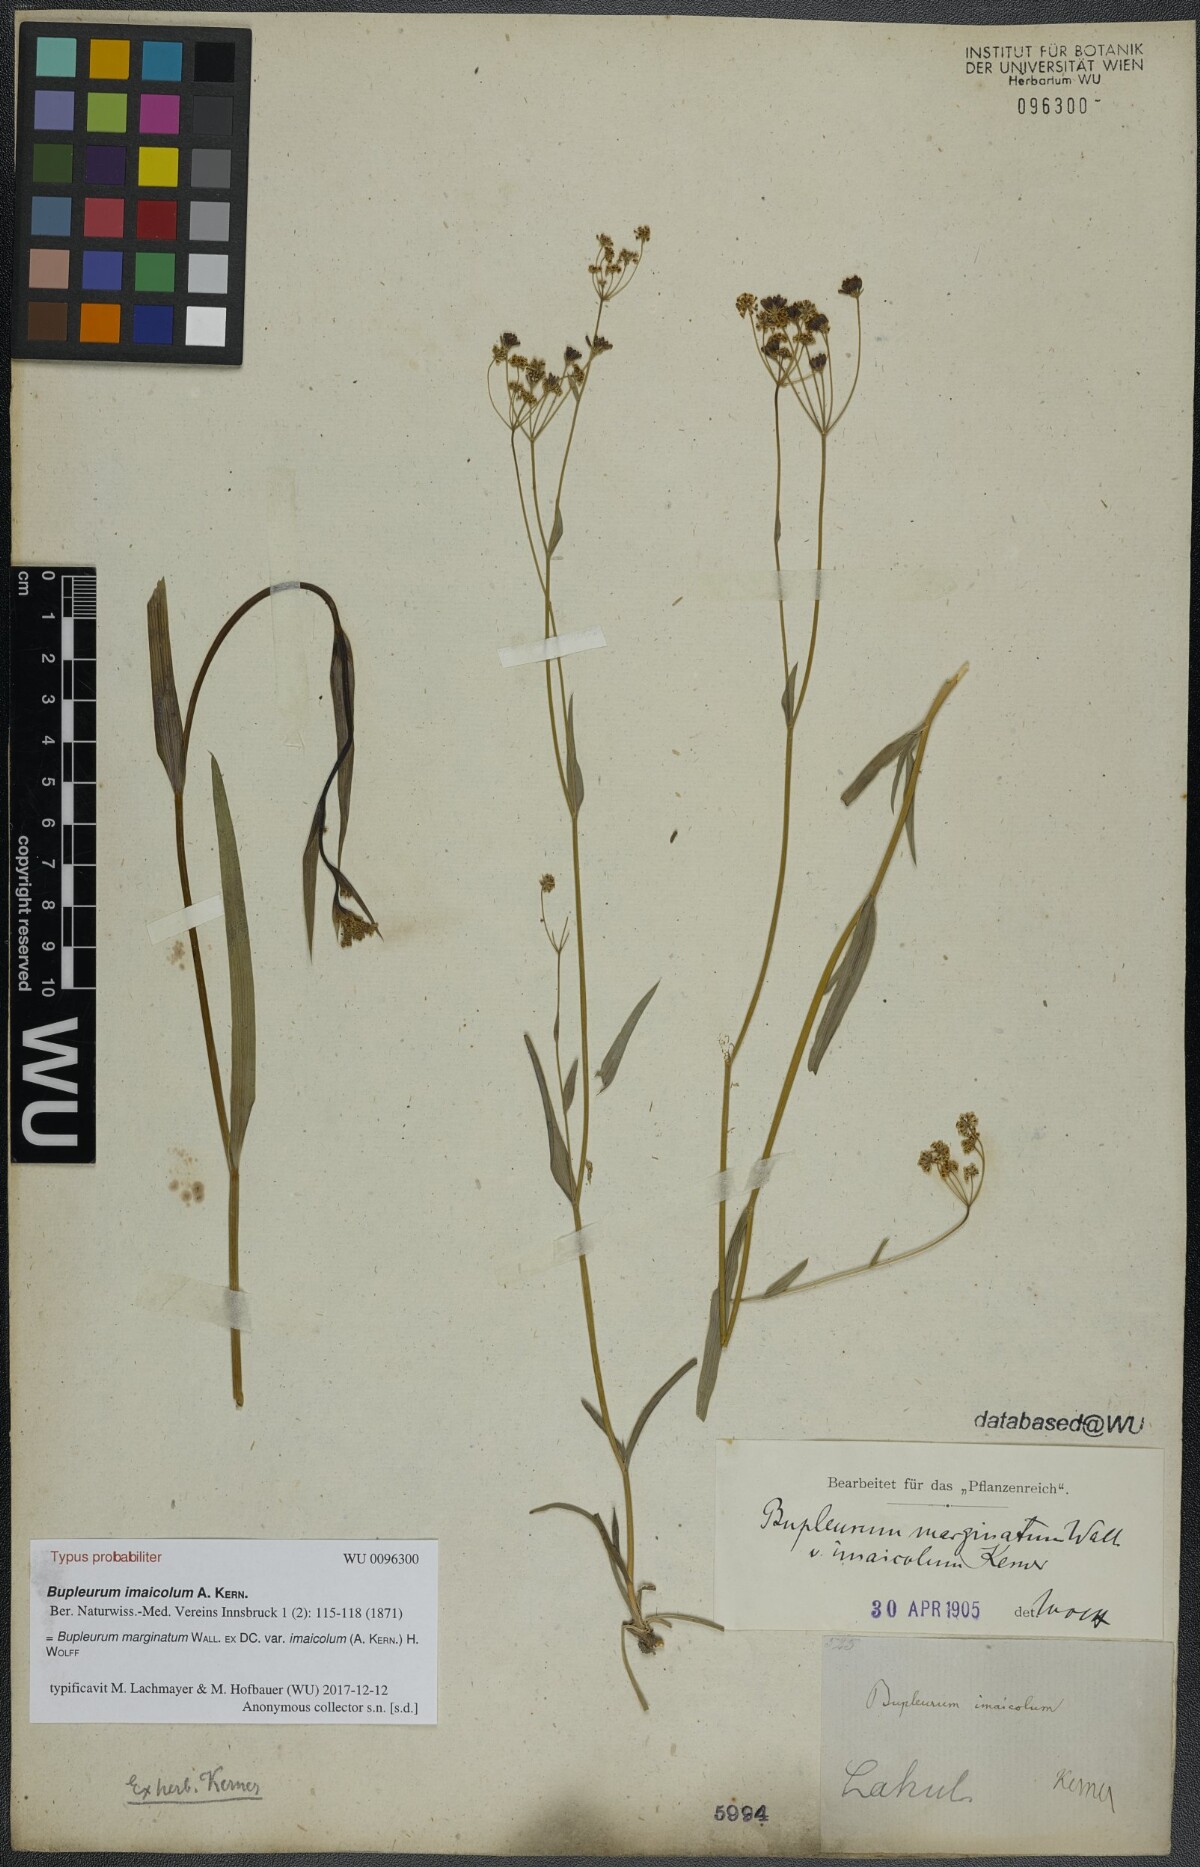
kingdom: Plantae
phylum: Tracheophyta
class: Magnoliopsida
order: Apiales
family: Apiaceae
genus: Bupleurum
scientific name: Bupleurum imaicola
